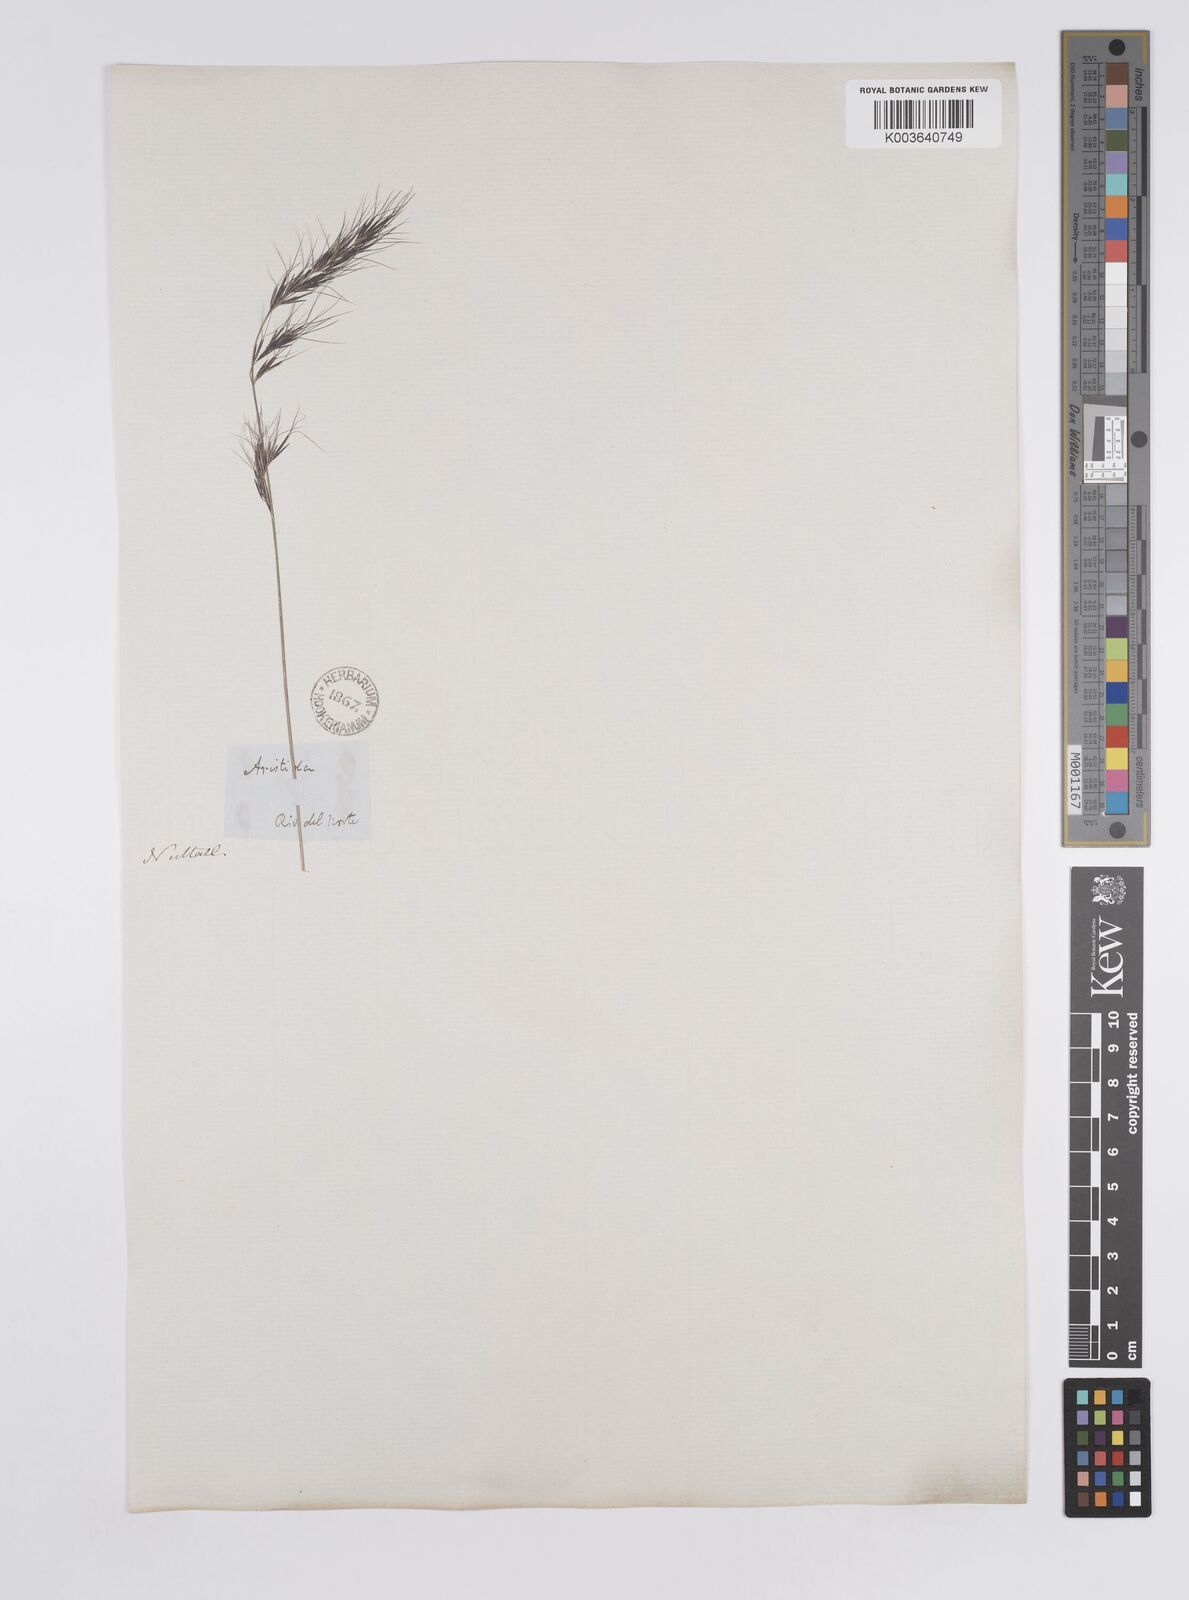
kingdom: Plantae
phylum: Tracheophyta
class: Liliopsida
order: Poales
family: Poaceae
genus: Aristida
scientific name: Aristida adscensionis
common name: Sixweeks threeawn
